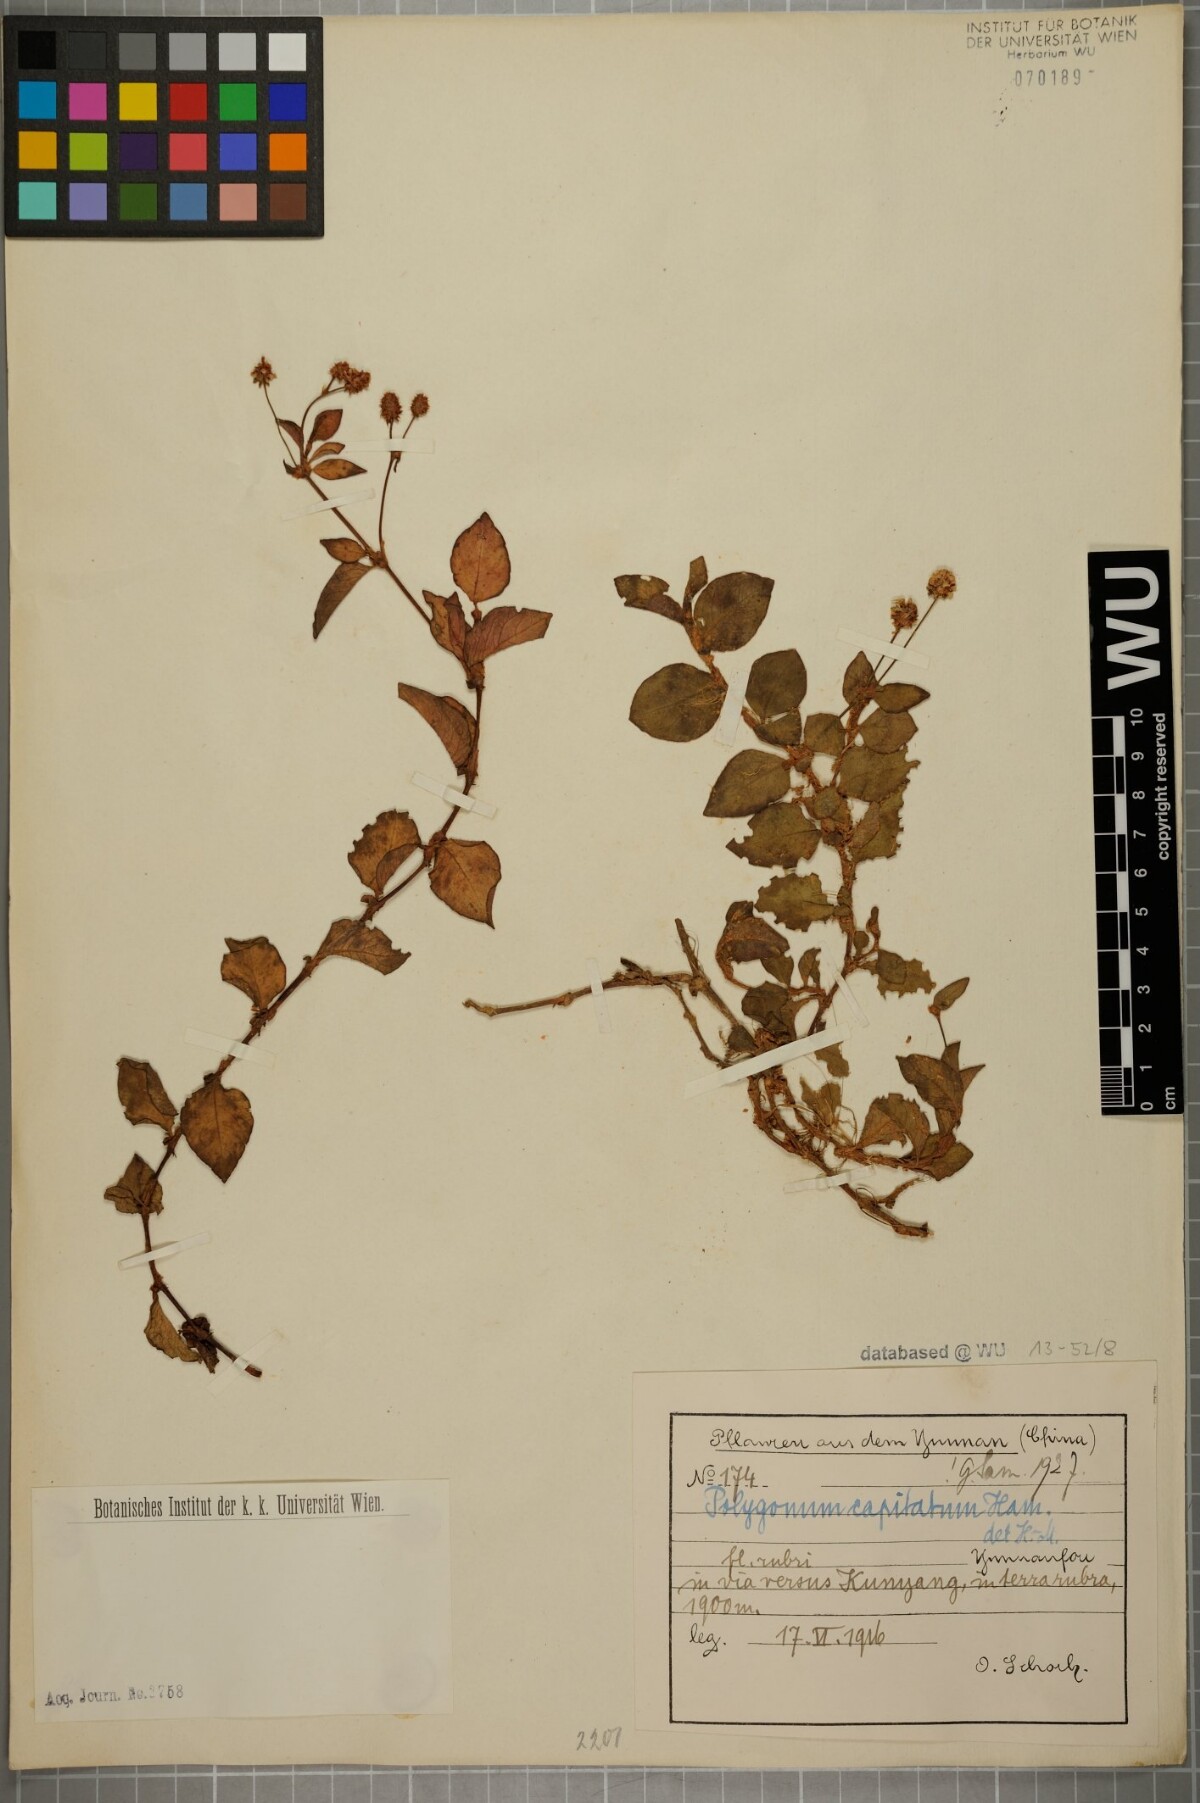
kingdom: Plantae
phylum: Tracheophyta
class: Magnoliopsida
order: Caryophyllales
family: Polygonaceae
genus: Persicaria
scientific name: Persicaria capitata
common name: Pinkhead smartweed
